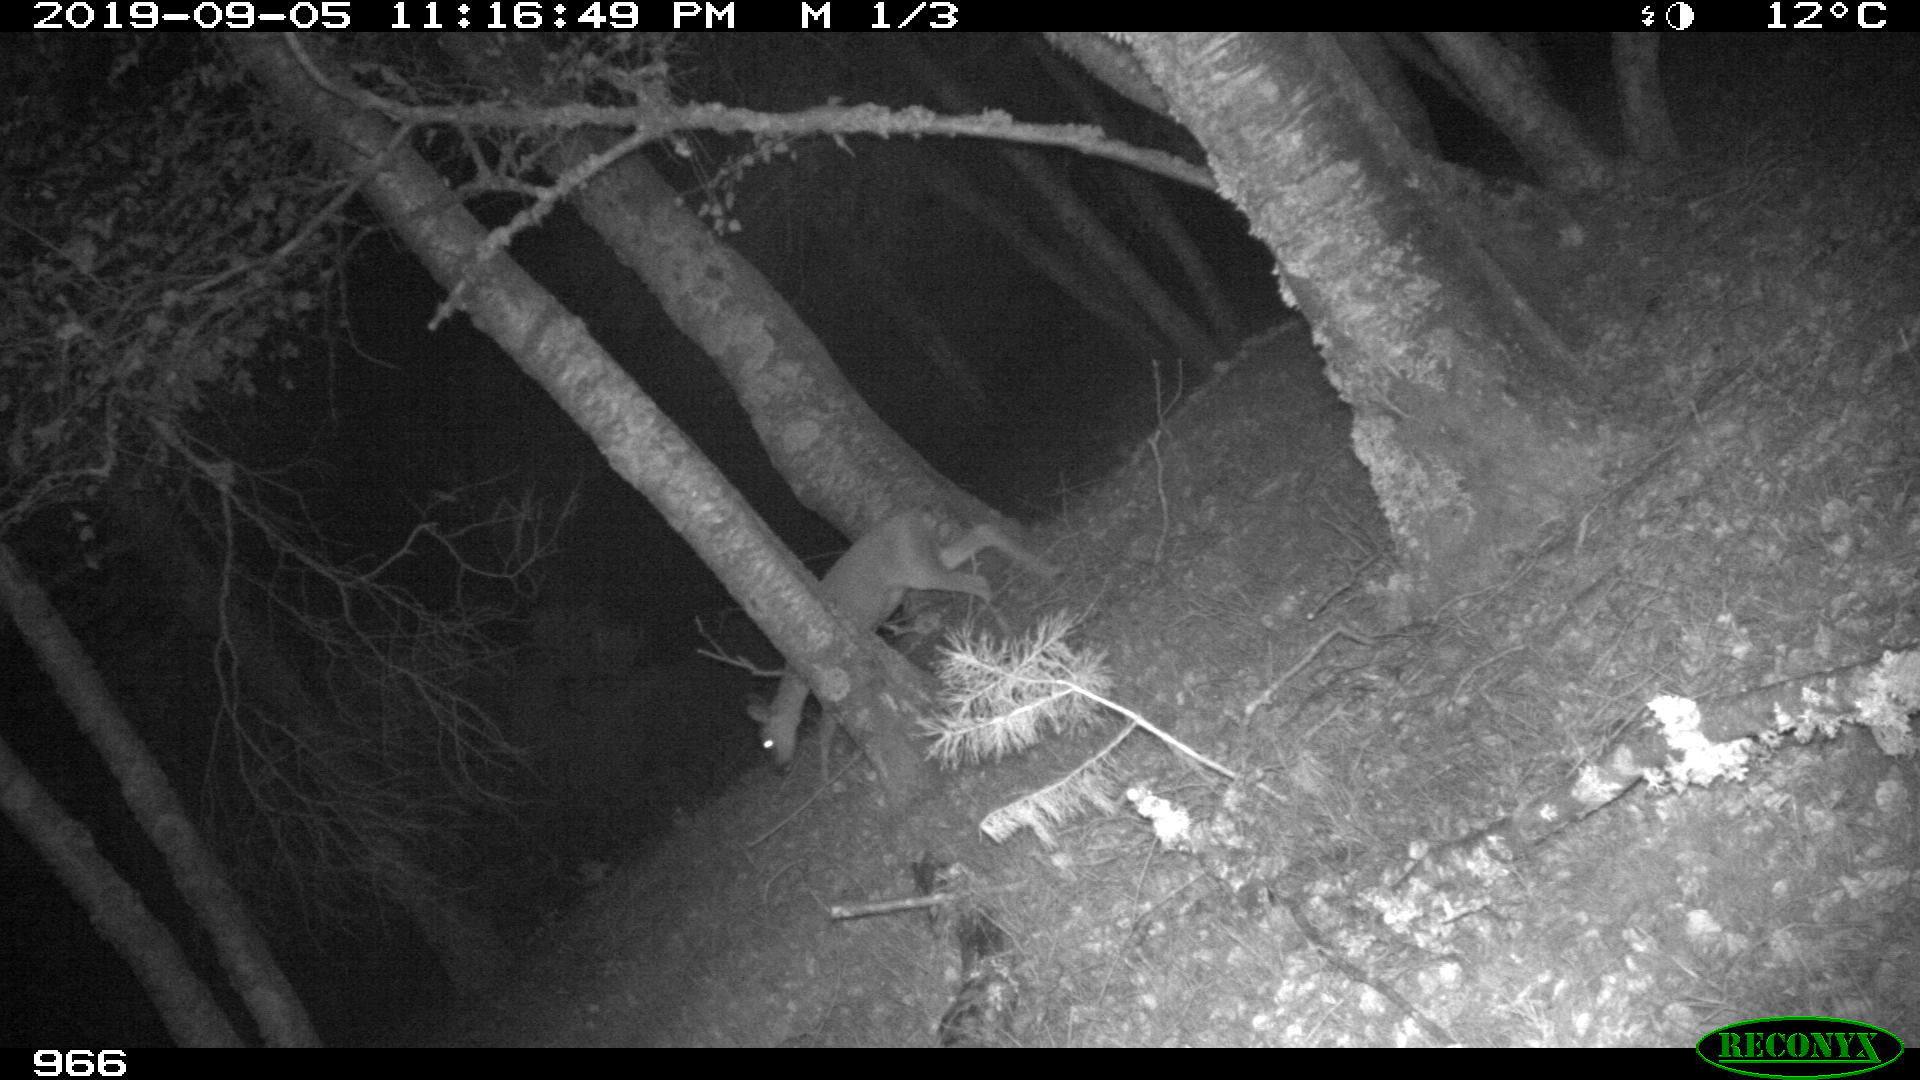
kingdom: Animalia
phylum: Chordata
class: Mammalia
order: Artiodactyla
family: Cervidae
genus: Capreolus
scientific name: Capreolus capreolus
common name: Western roe deer
